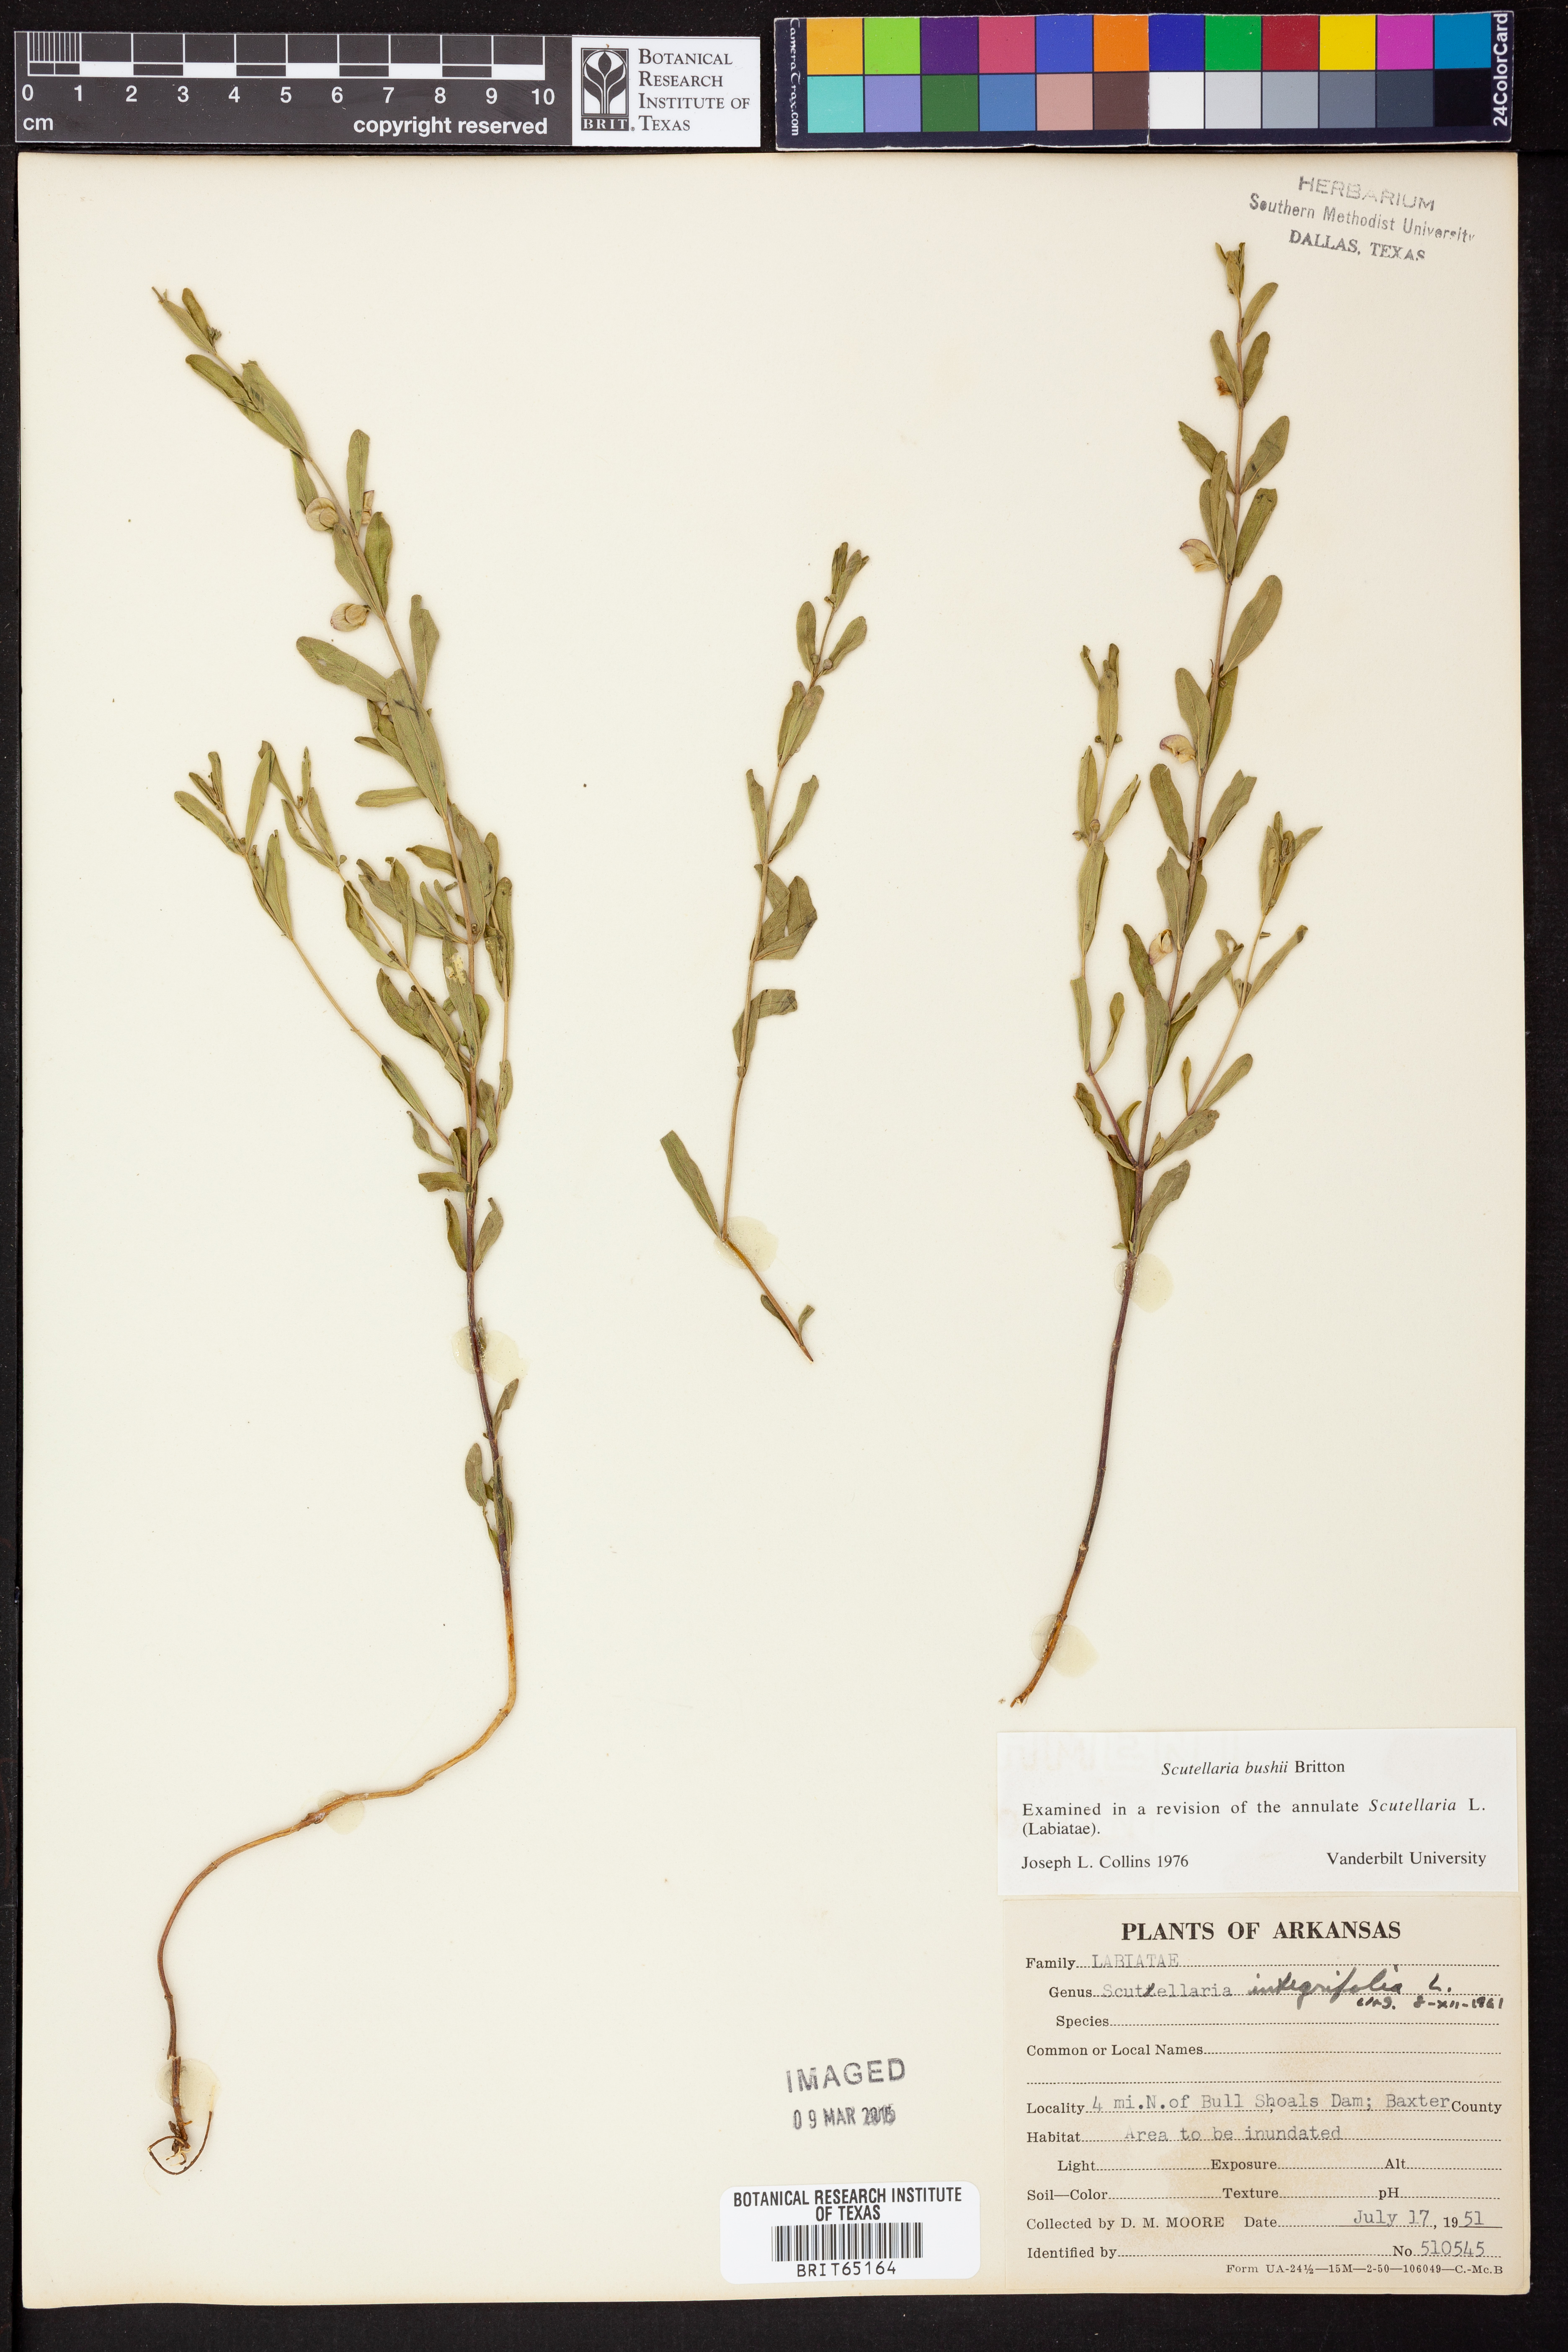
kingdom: Plantae
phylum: Tracheophyta
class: Magnoliopsida
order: Lamiales
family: Lamiaceae
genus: Scutellaria
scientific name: Scutellaria
